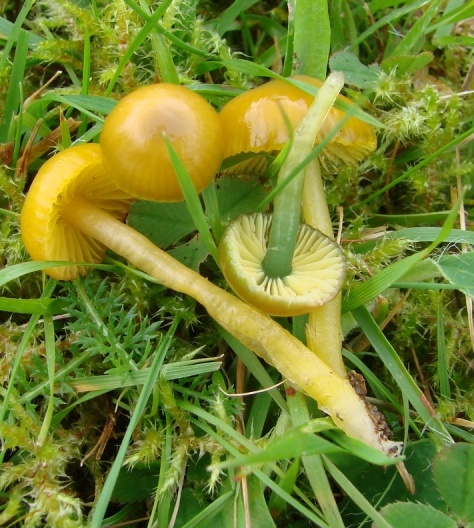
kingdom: Fungi
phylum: Basidiomycota
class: Agaricomycetes
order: Agaricales
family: Hygrophoraceae
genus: Gliophorus
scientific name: Gliophorus psittacinus
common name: papegøje-vokshat
